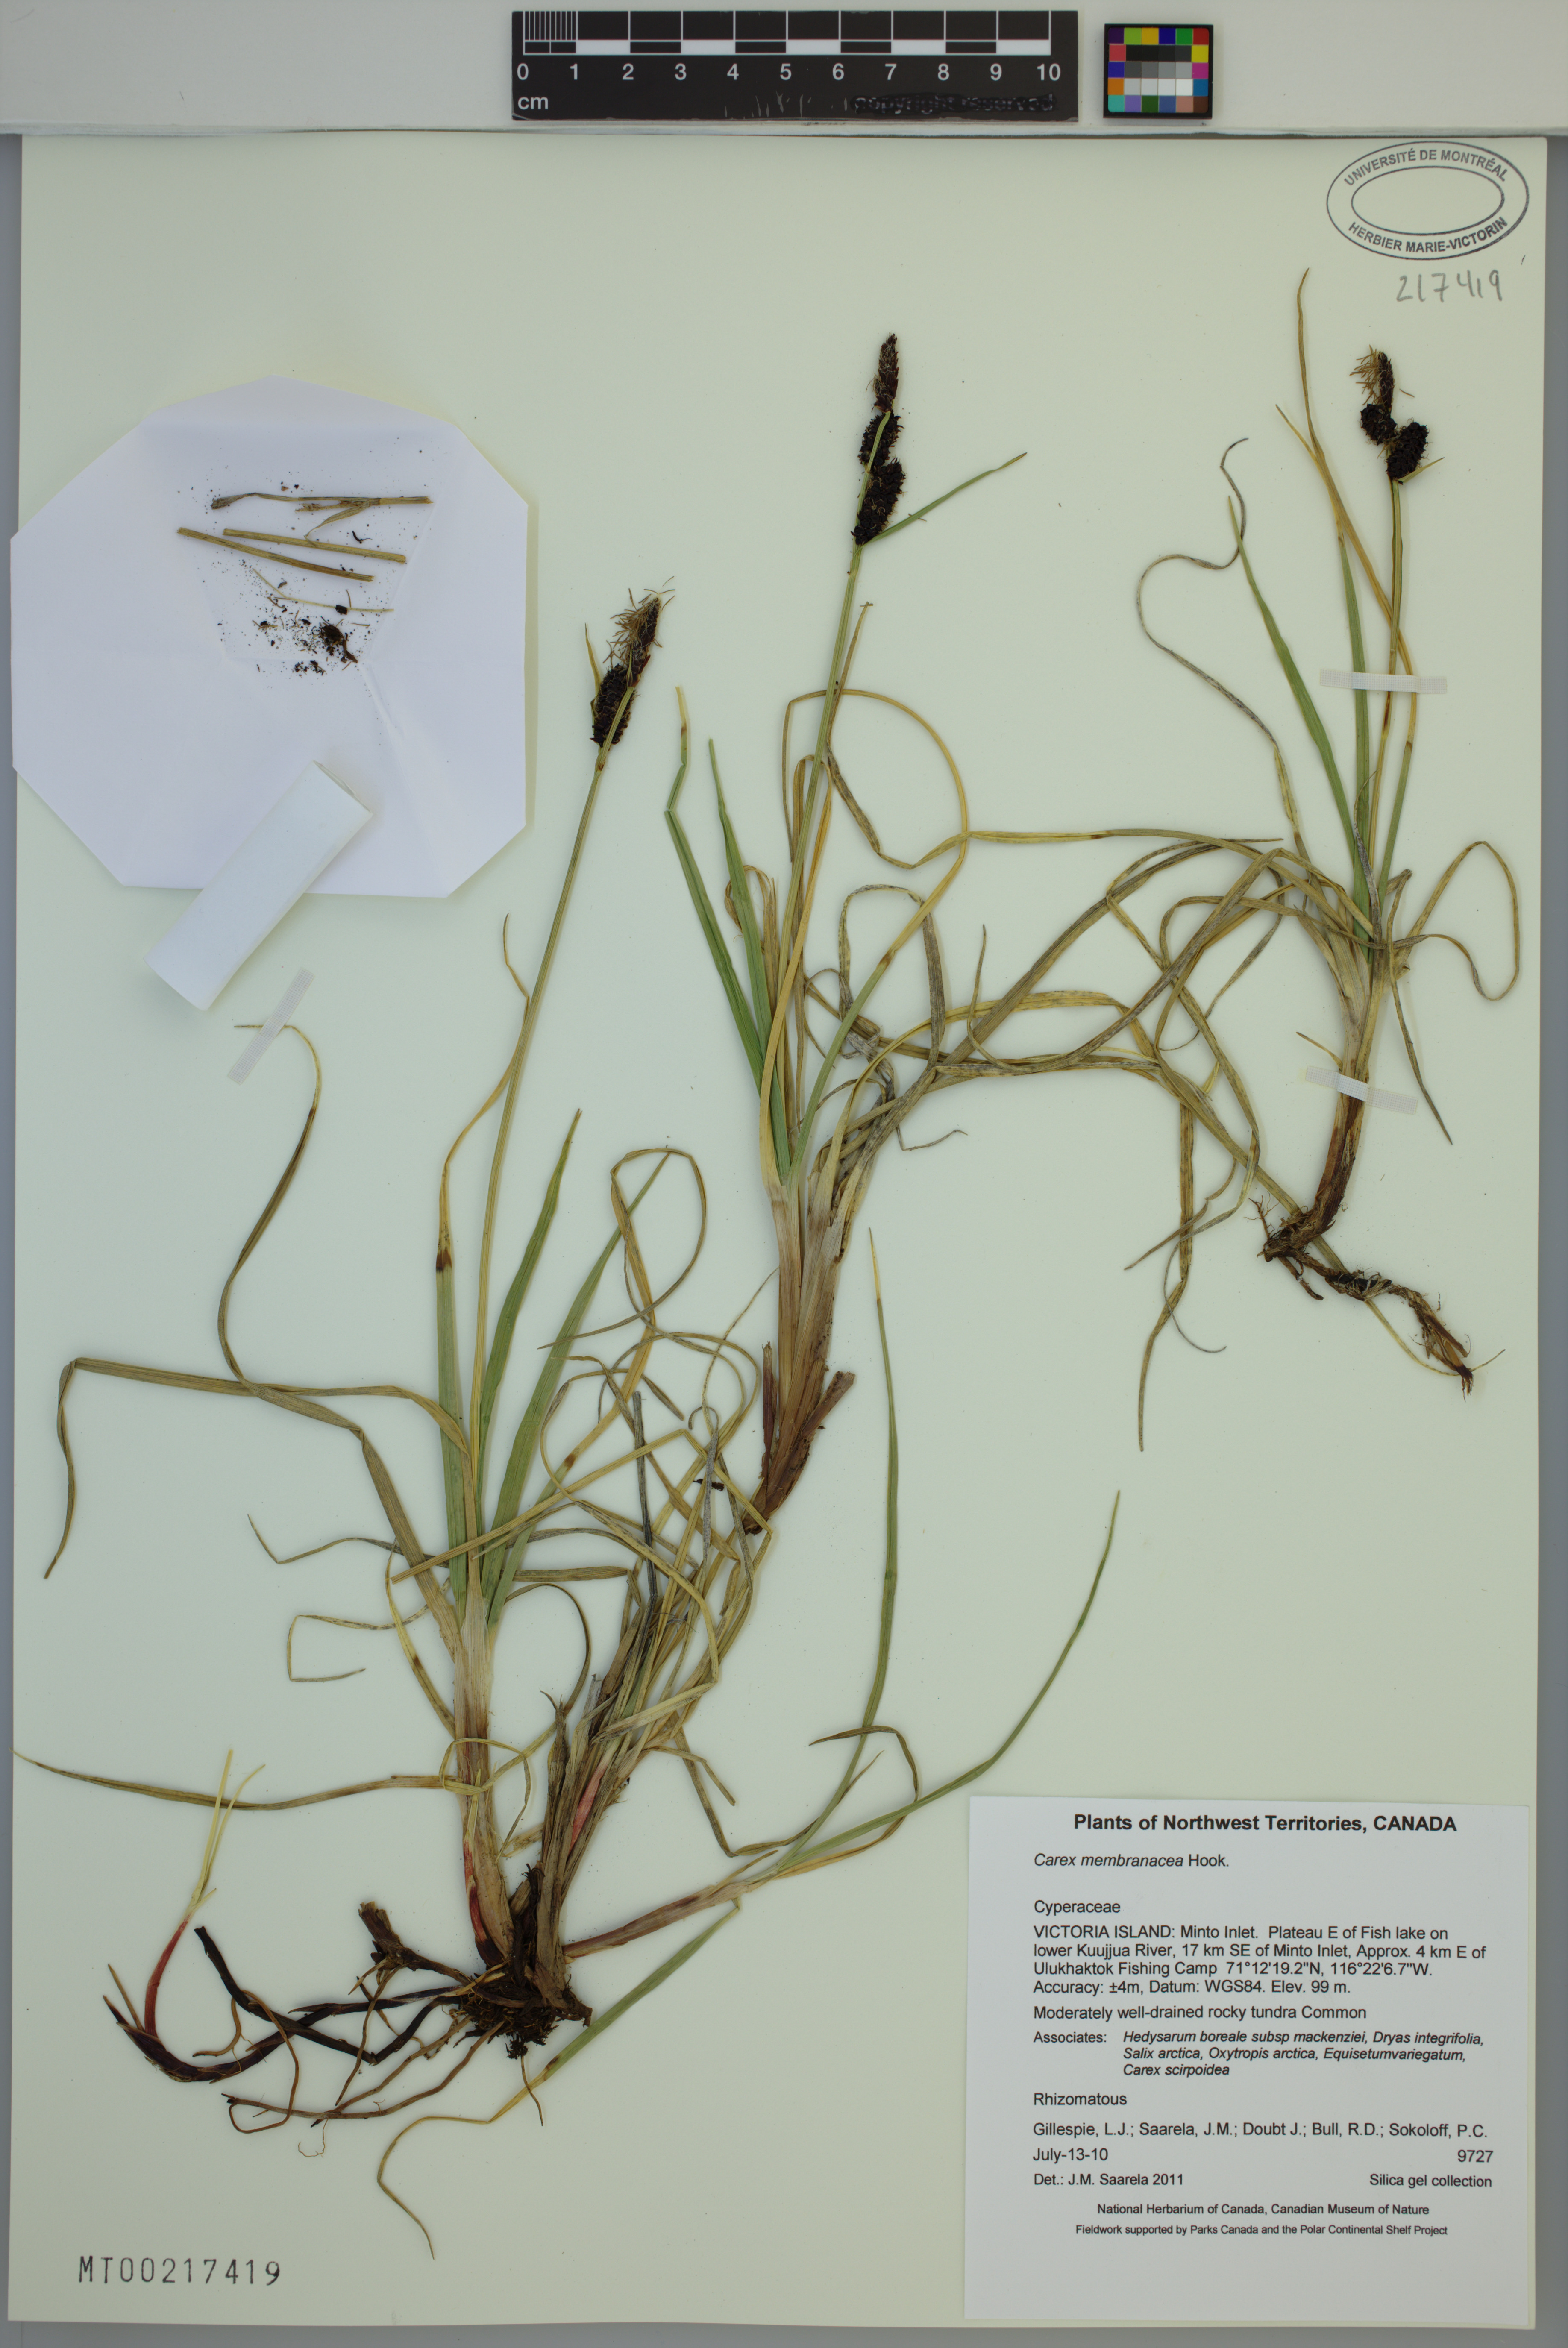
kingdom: Plantae
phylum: Tracheophyta
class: Liliopsida
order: Poales
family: Cyperaceae
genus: Carex
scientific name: Carex membranacea
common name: Fragile sedge
